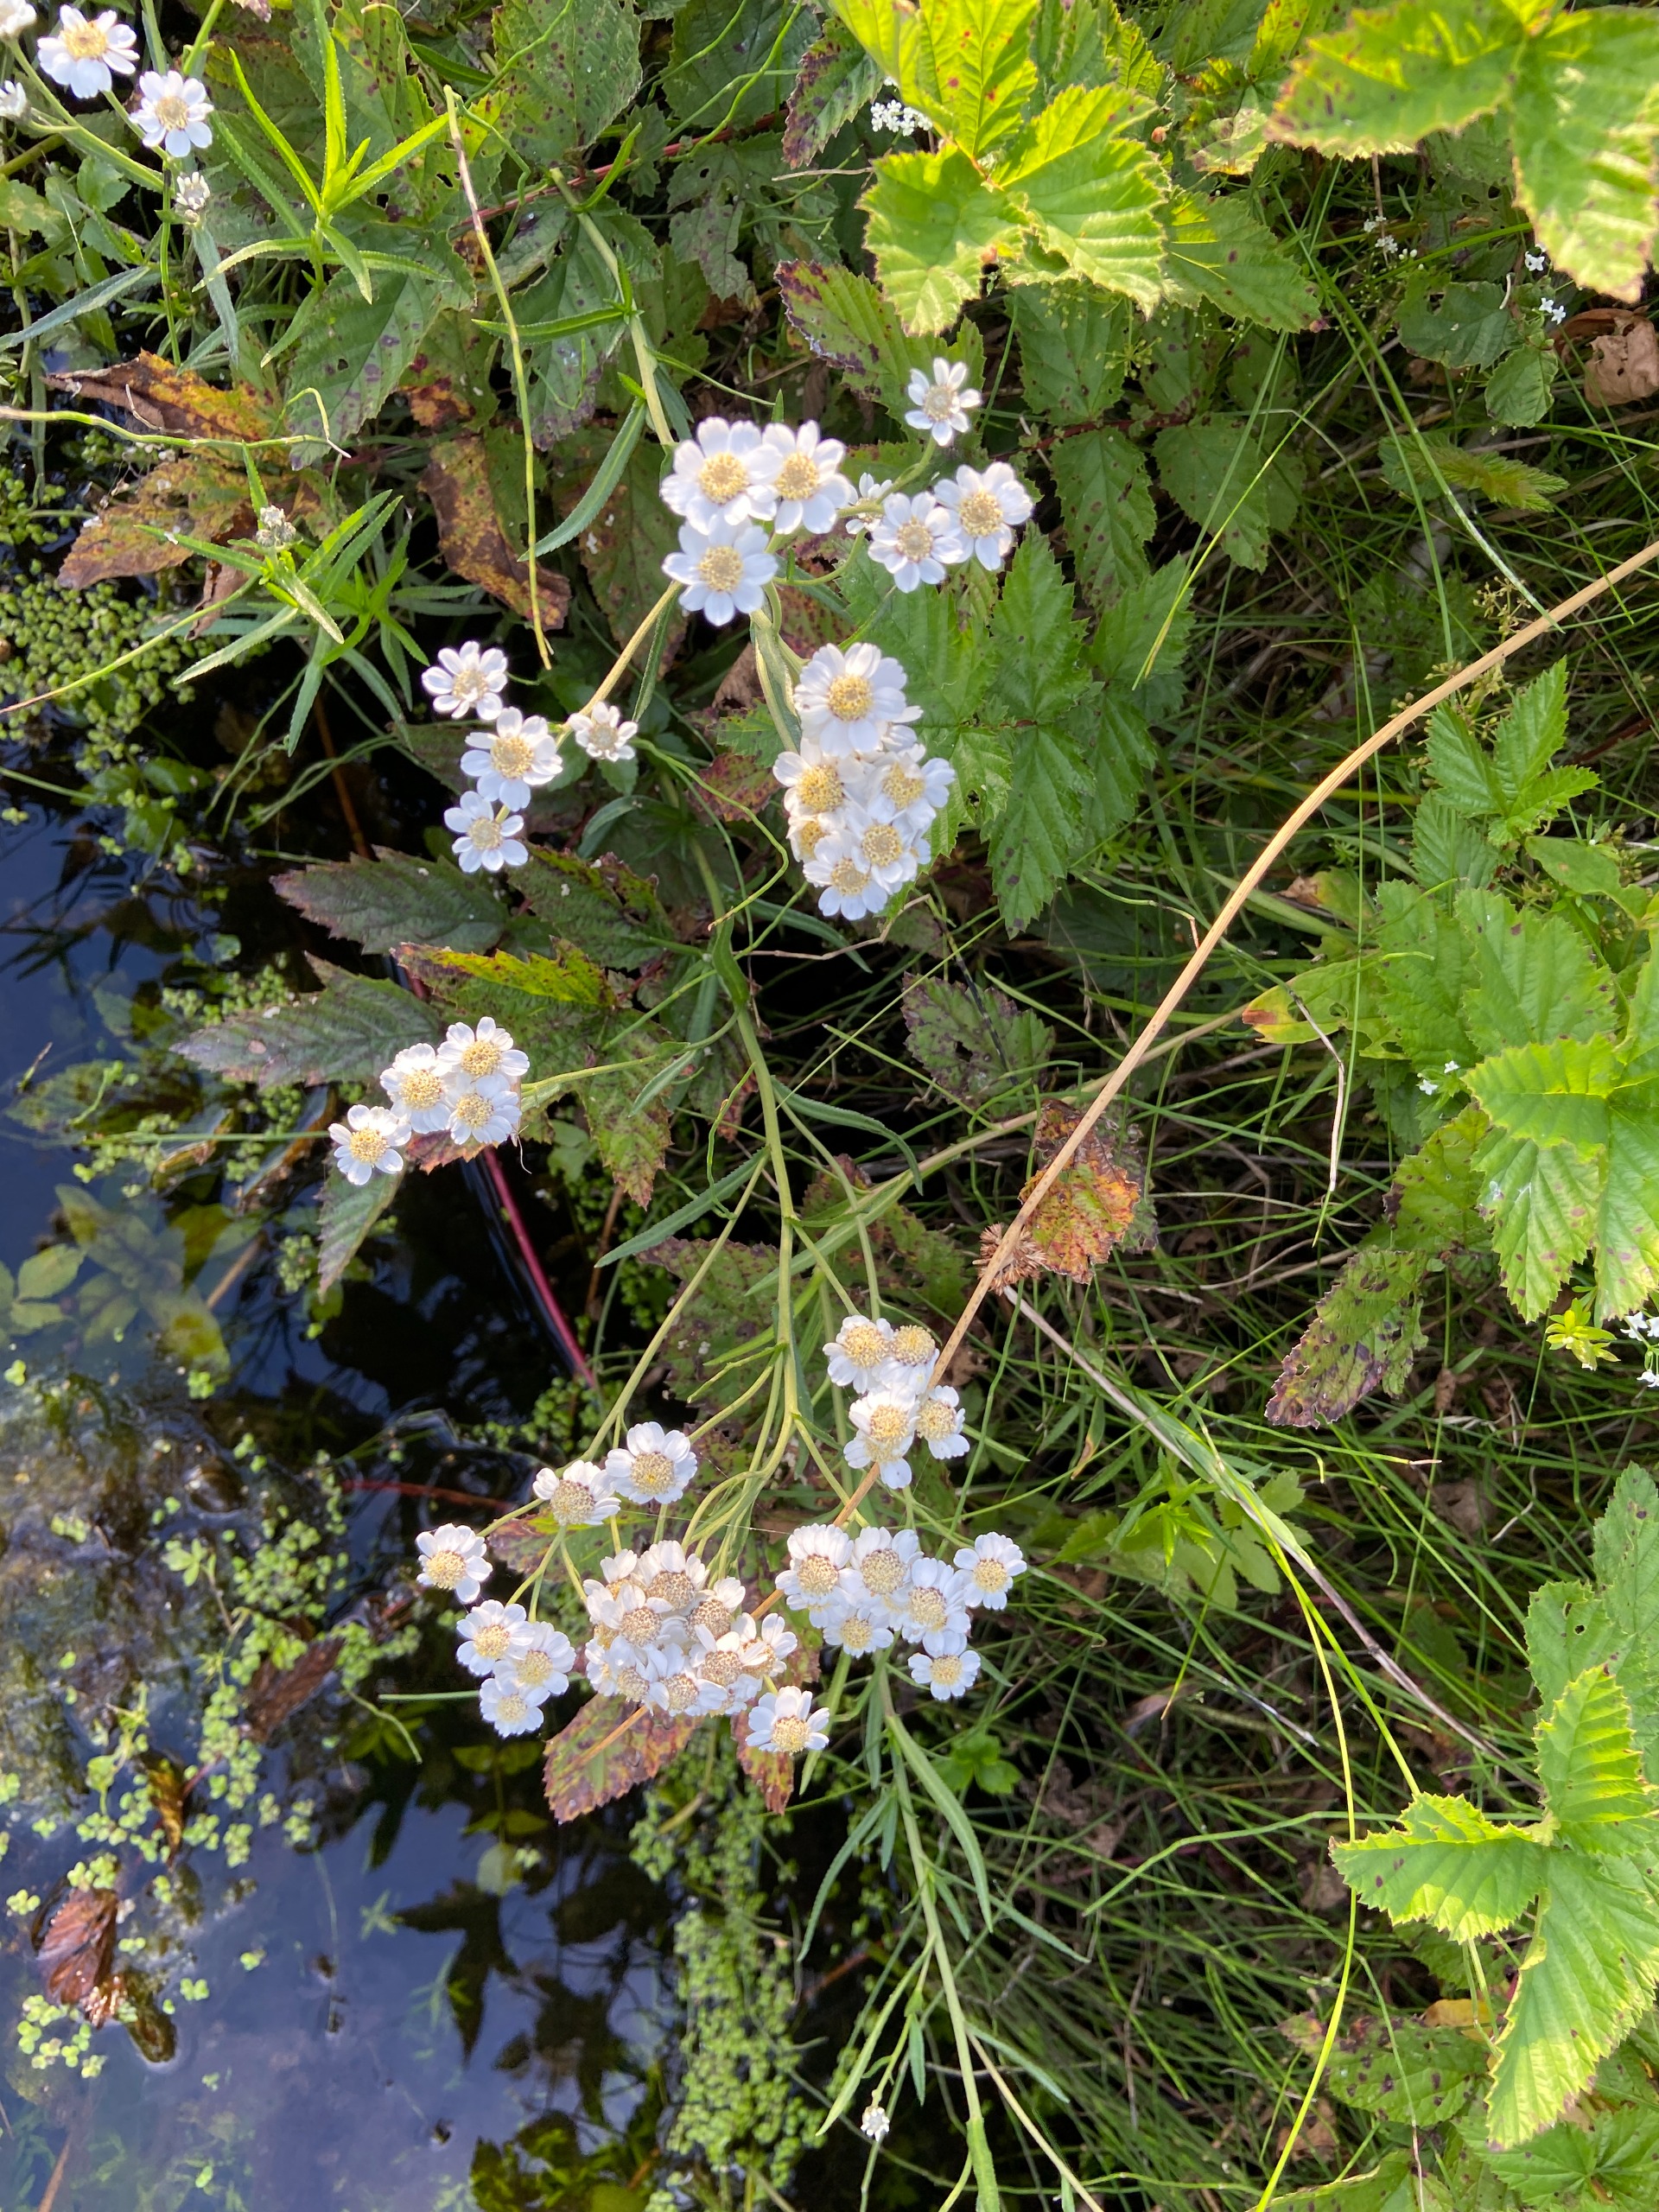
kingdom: Plantae
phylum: Tracheophyta
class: Magnoliopsida
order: Asterales
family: Asteraceae
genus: Achillea
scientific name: Achillea ptarmica
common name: Nyse-røllike
